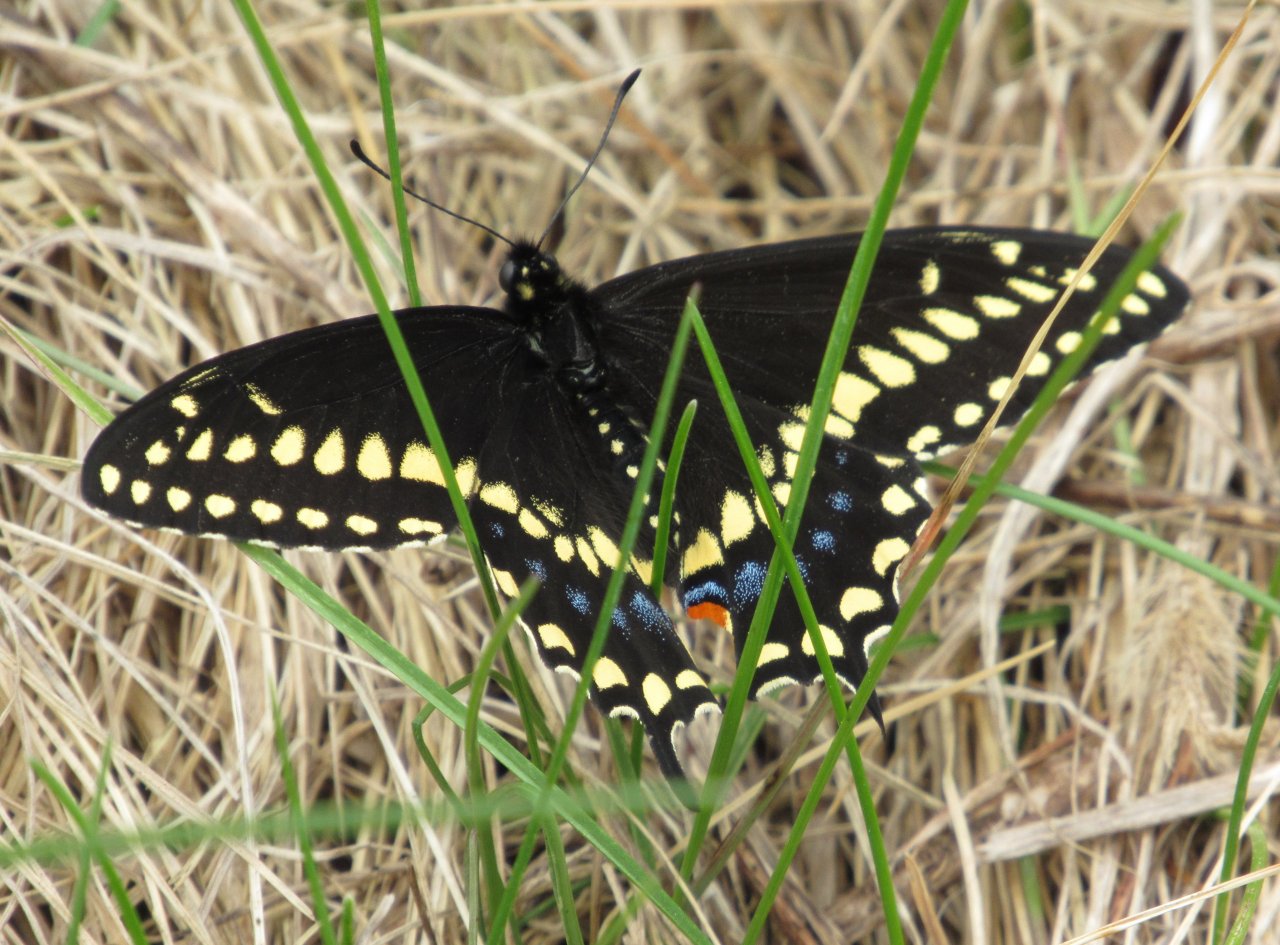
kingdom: Animalia
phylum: Arthropoda
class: Insecta
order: Lepidoptera
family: Papilionidae
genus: Papilio
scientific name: Papilio polyxenes
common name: Black Swallowtail
